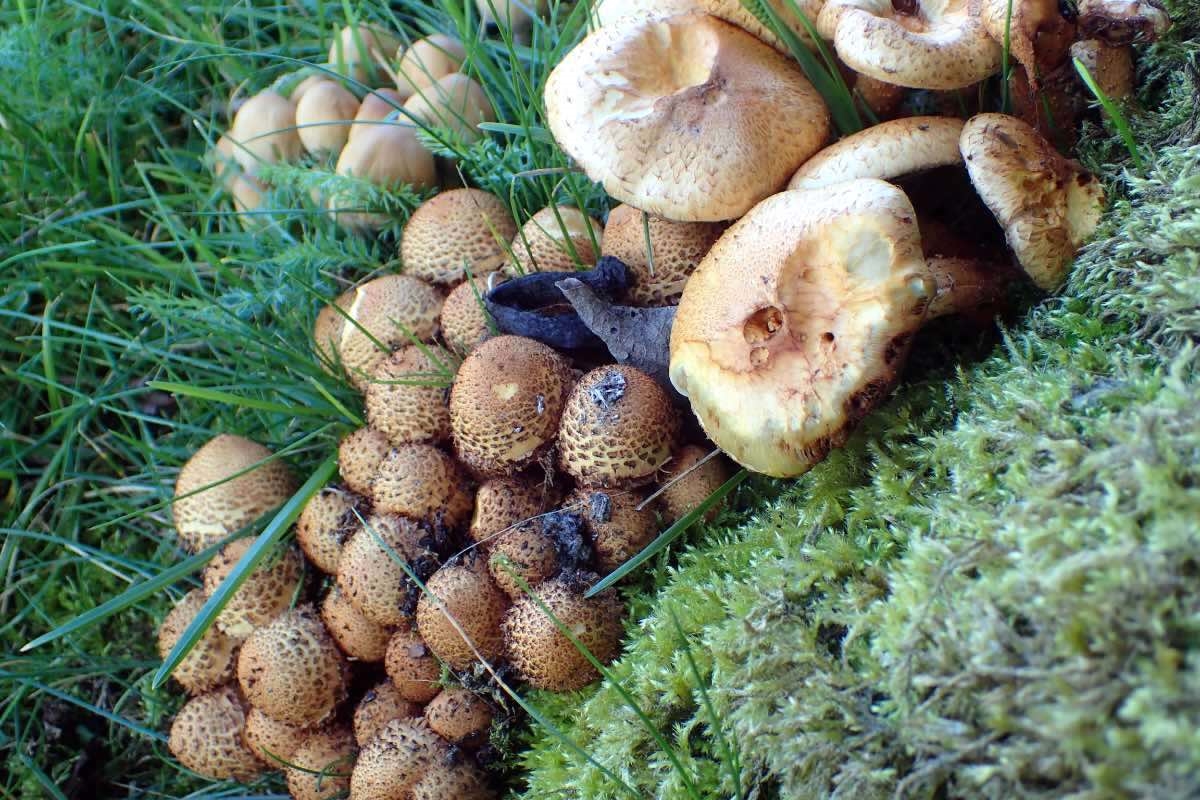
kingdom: Fungi
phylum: Basidiomycota
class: Agaricomycetes
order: Agaricales
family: Strophariaceae
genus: Pholiota
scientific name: Pholiota squarrosa
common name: krumskællet skælhat
